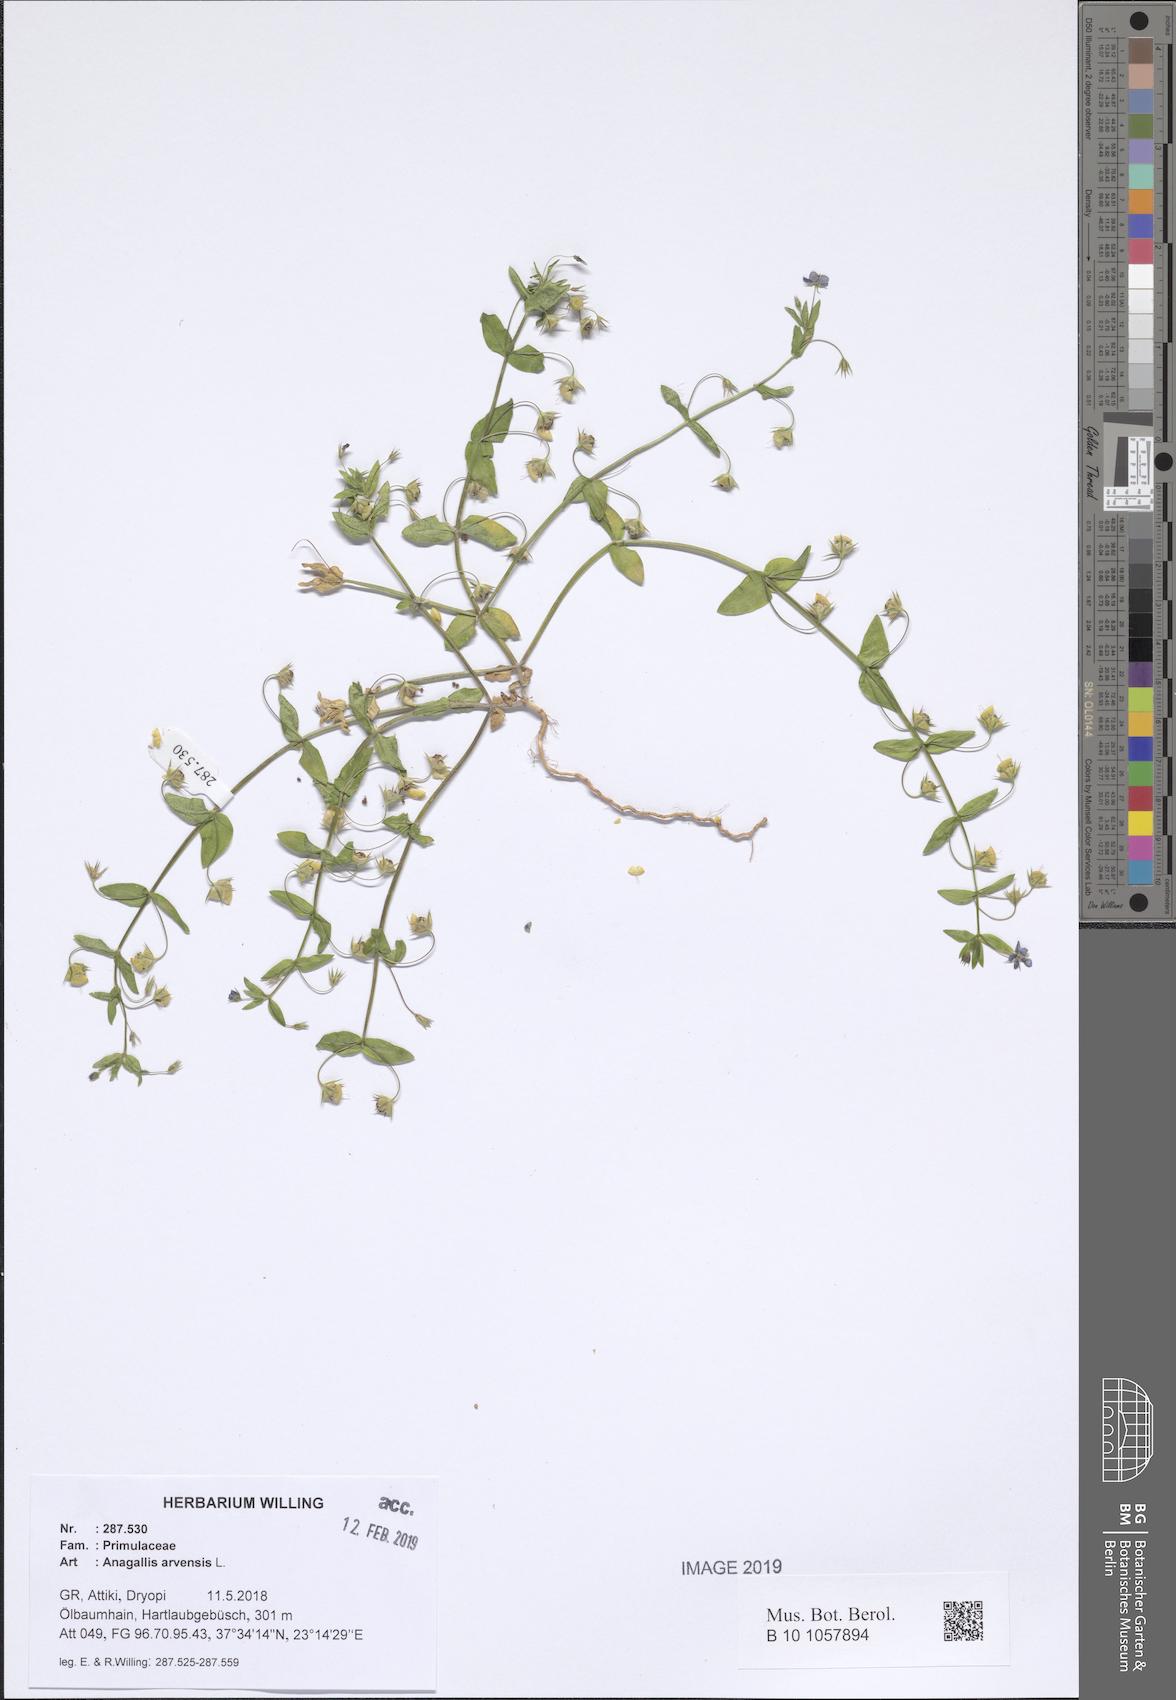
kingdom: Plantae
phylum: Tracheophyta
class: Magnoliopsida
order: Ericales
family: Primulaceae
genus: Lysimachia
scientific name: Lysimachia arvensis
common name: Scarlet pimpernel
